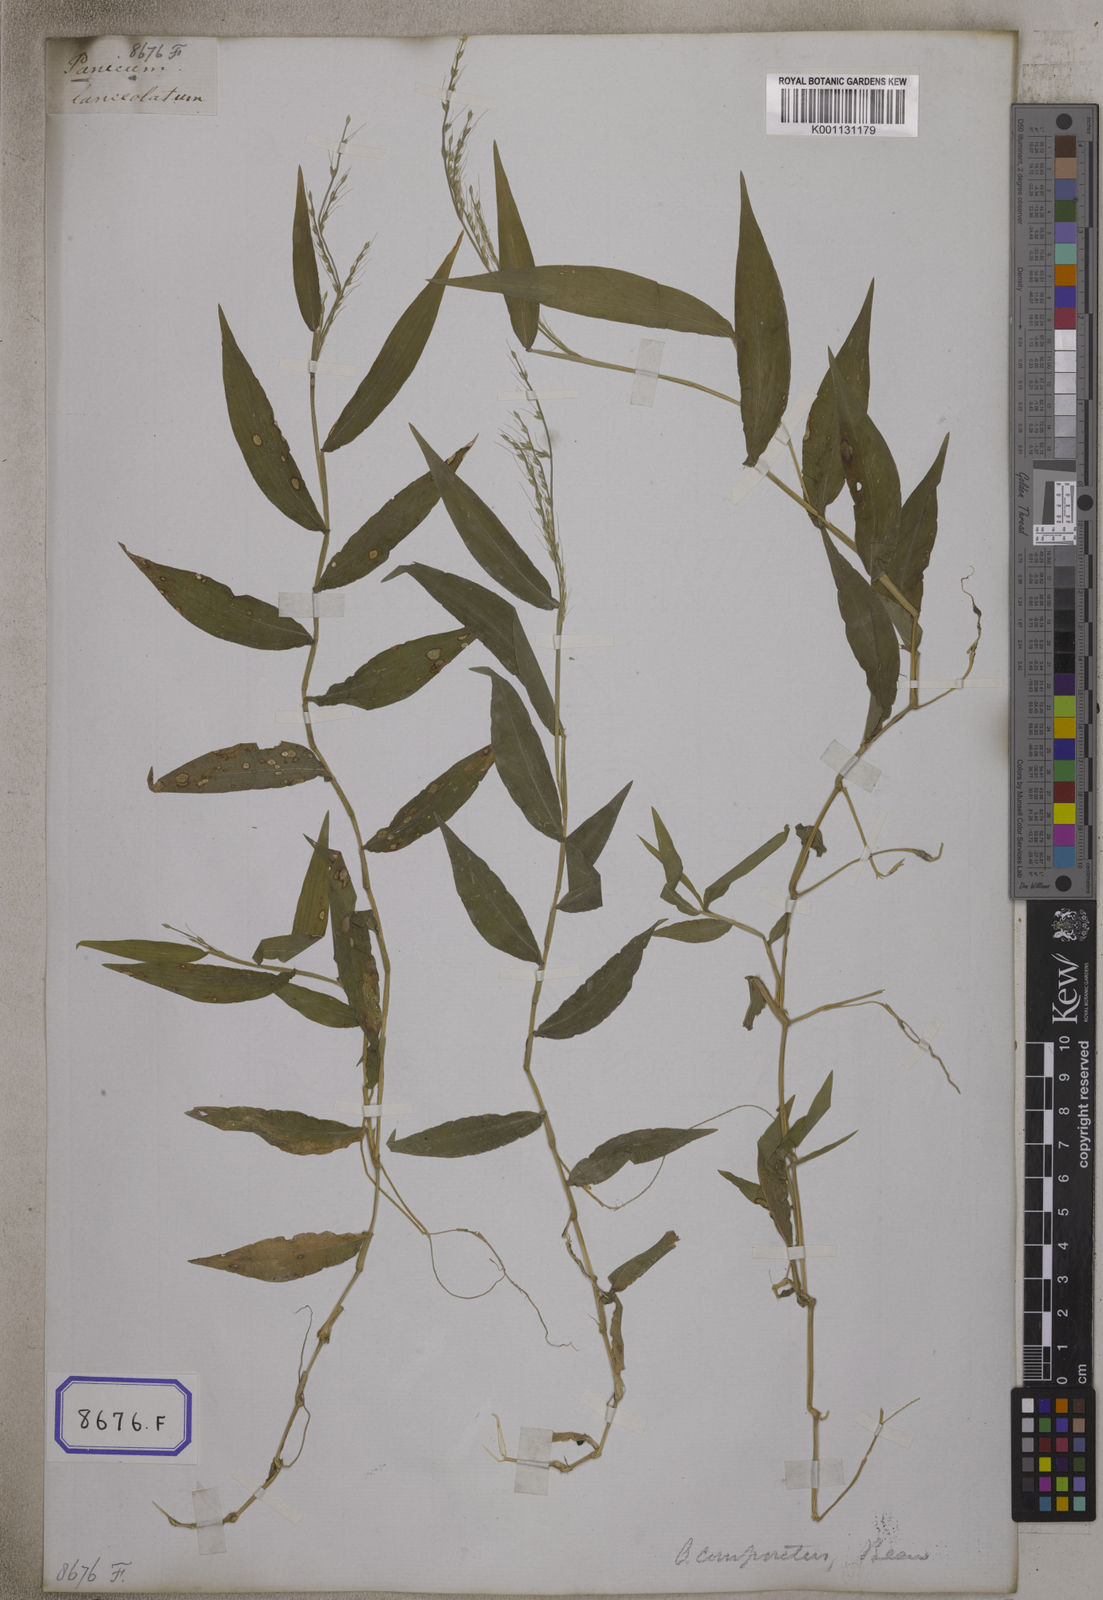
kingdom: Plantae
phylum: Tracheophyta
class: Liliopsida
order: Poales
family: Poaceae
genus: Oplismenus
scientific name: Oplismenus compositus
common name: Running mountain grass
